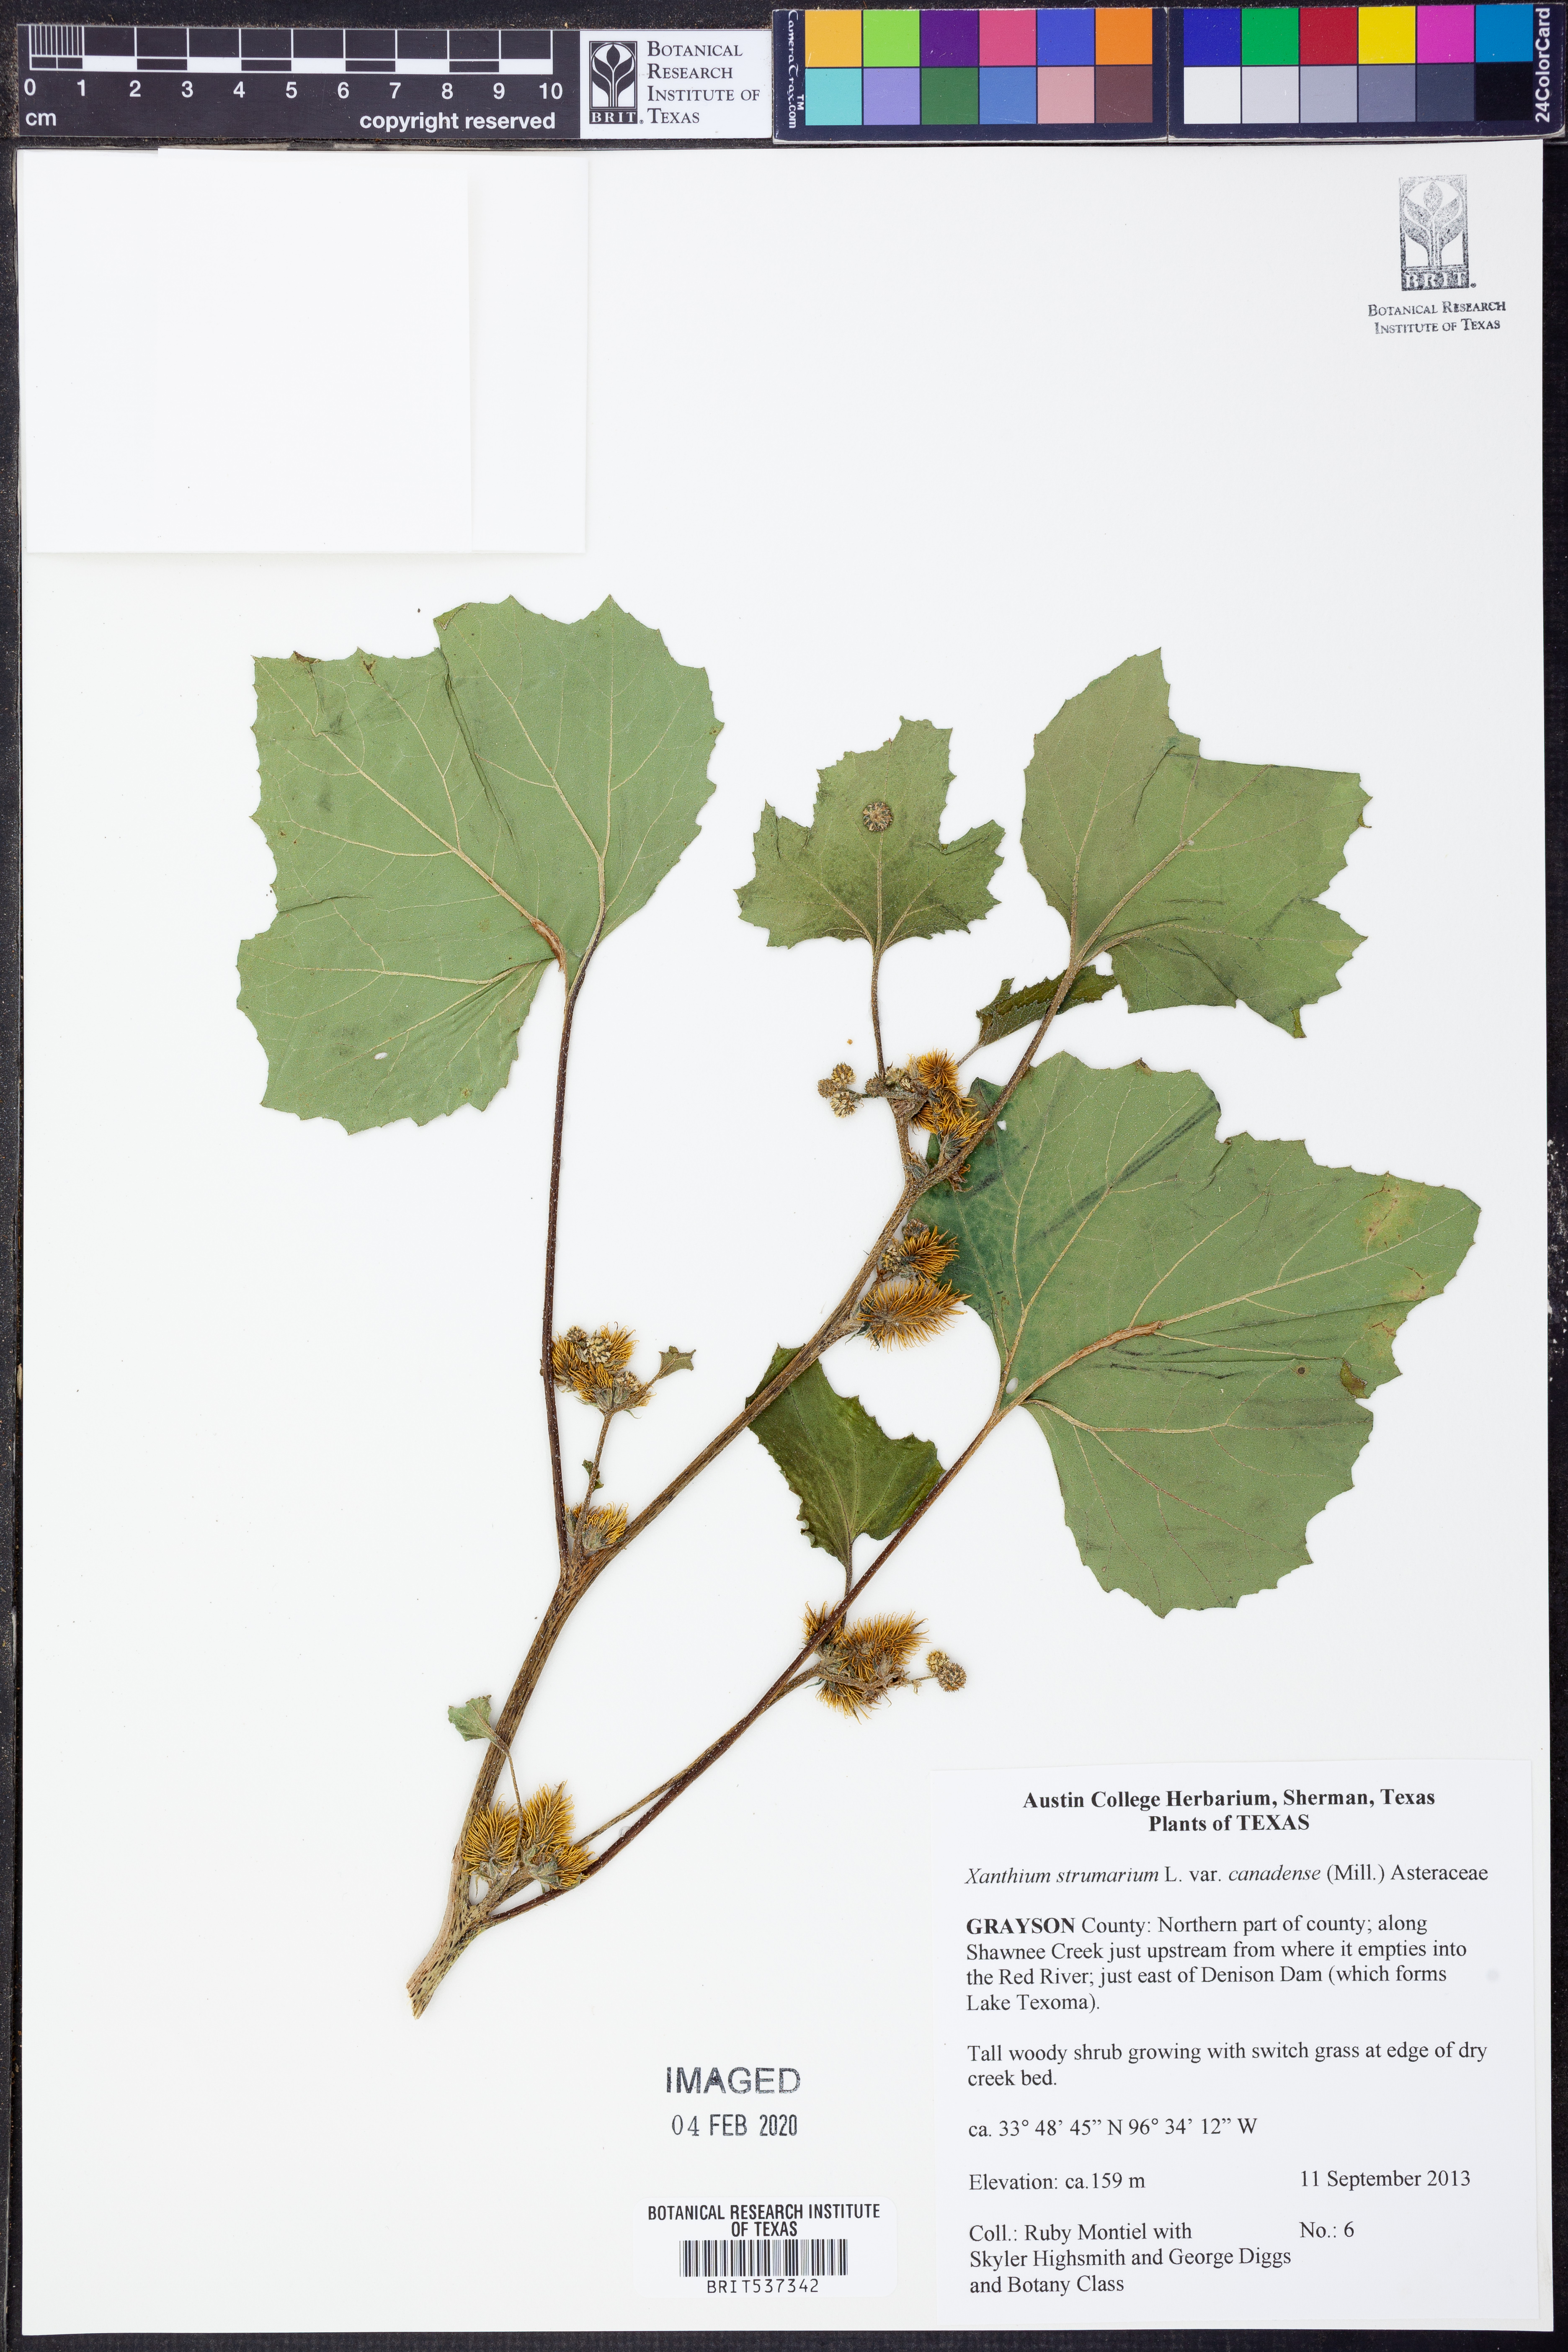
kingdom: Plantae
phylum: Tracheophyta
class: Magnoliopsida
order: Asterales
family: Asteraceae
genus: Xanthium
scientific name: Xanthium orientale
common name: Californian burr
